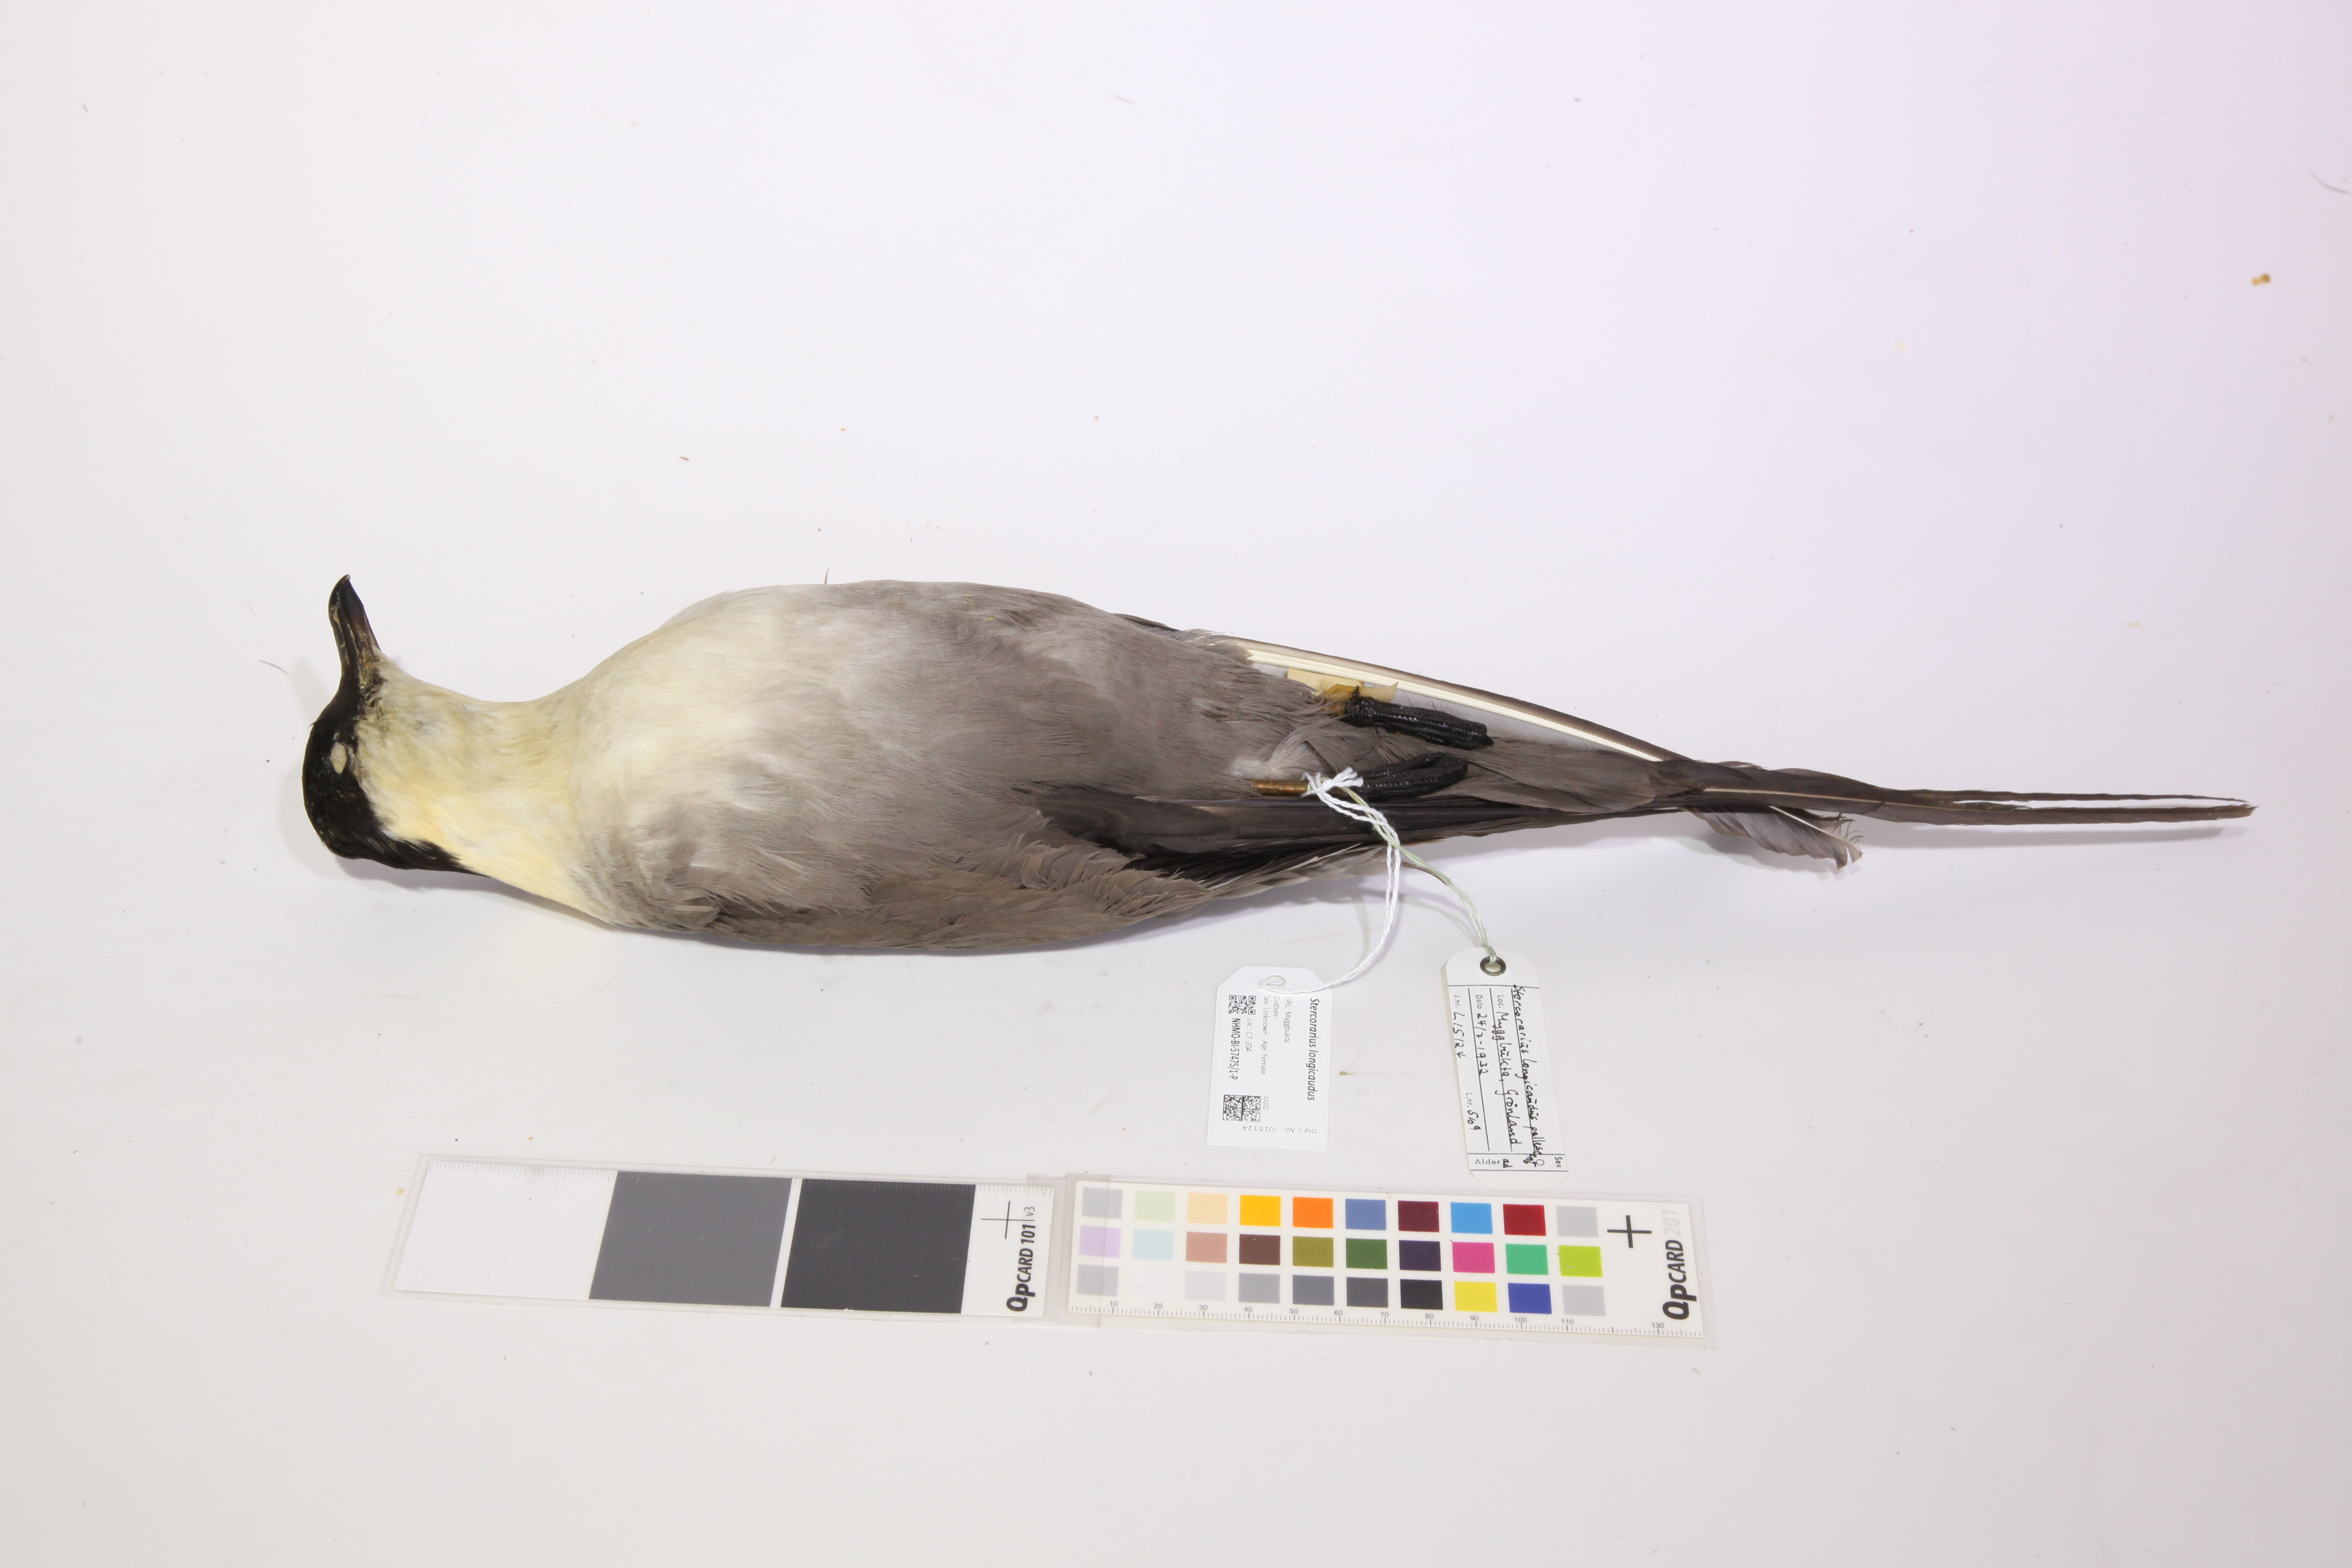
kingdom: Animalia
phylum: Chordata
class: Aves
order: Charadriiformes
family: Stercorariidae
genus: Stercorarius
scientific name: Stercorarius longicaudus
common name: Long-tailed jaeger
